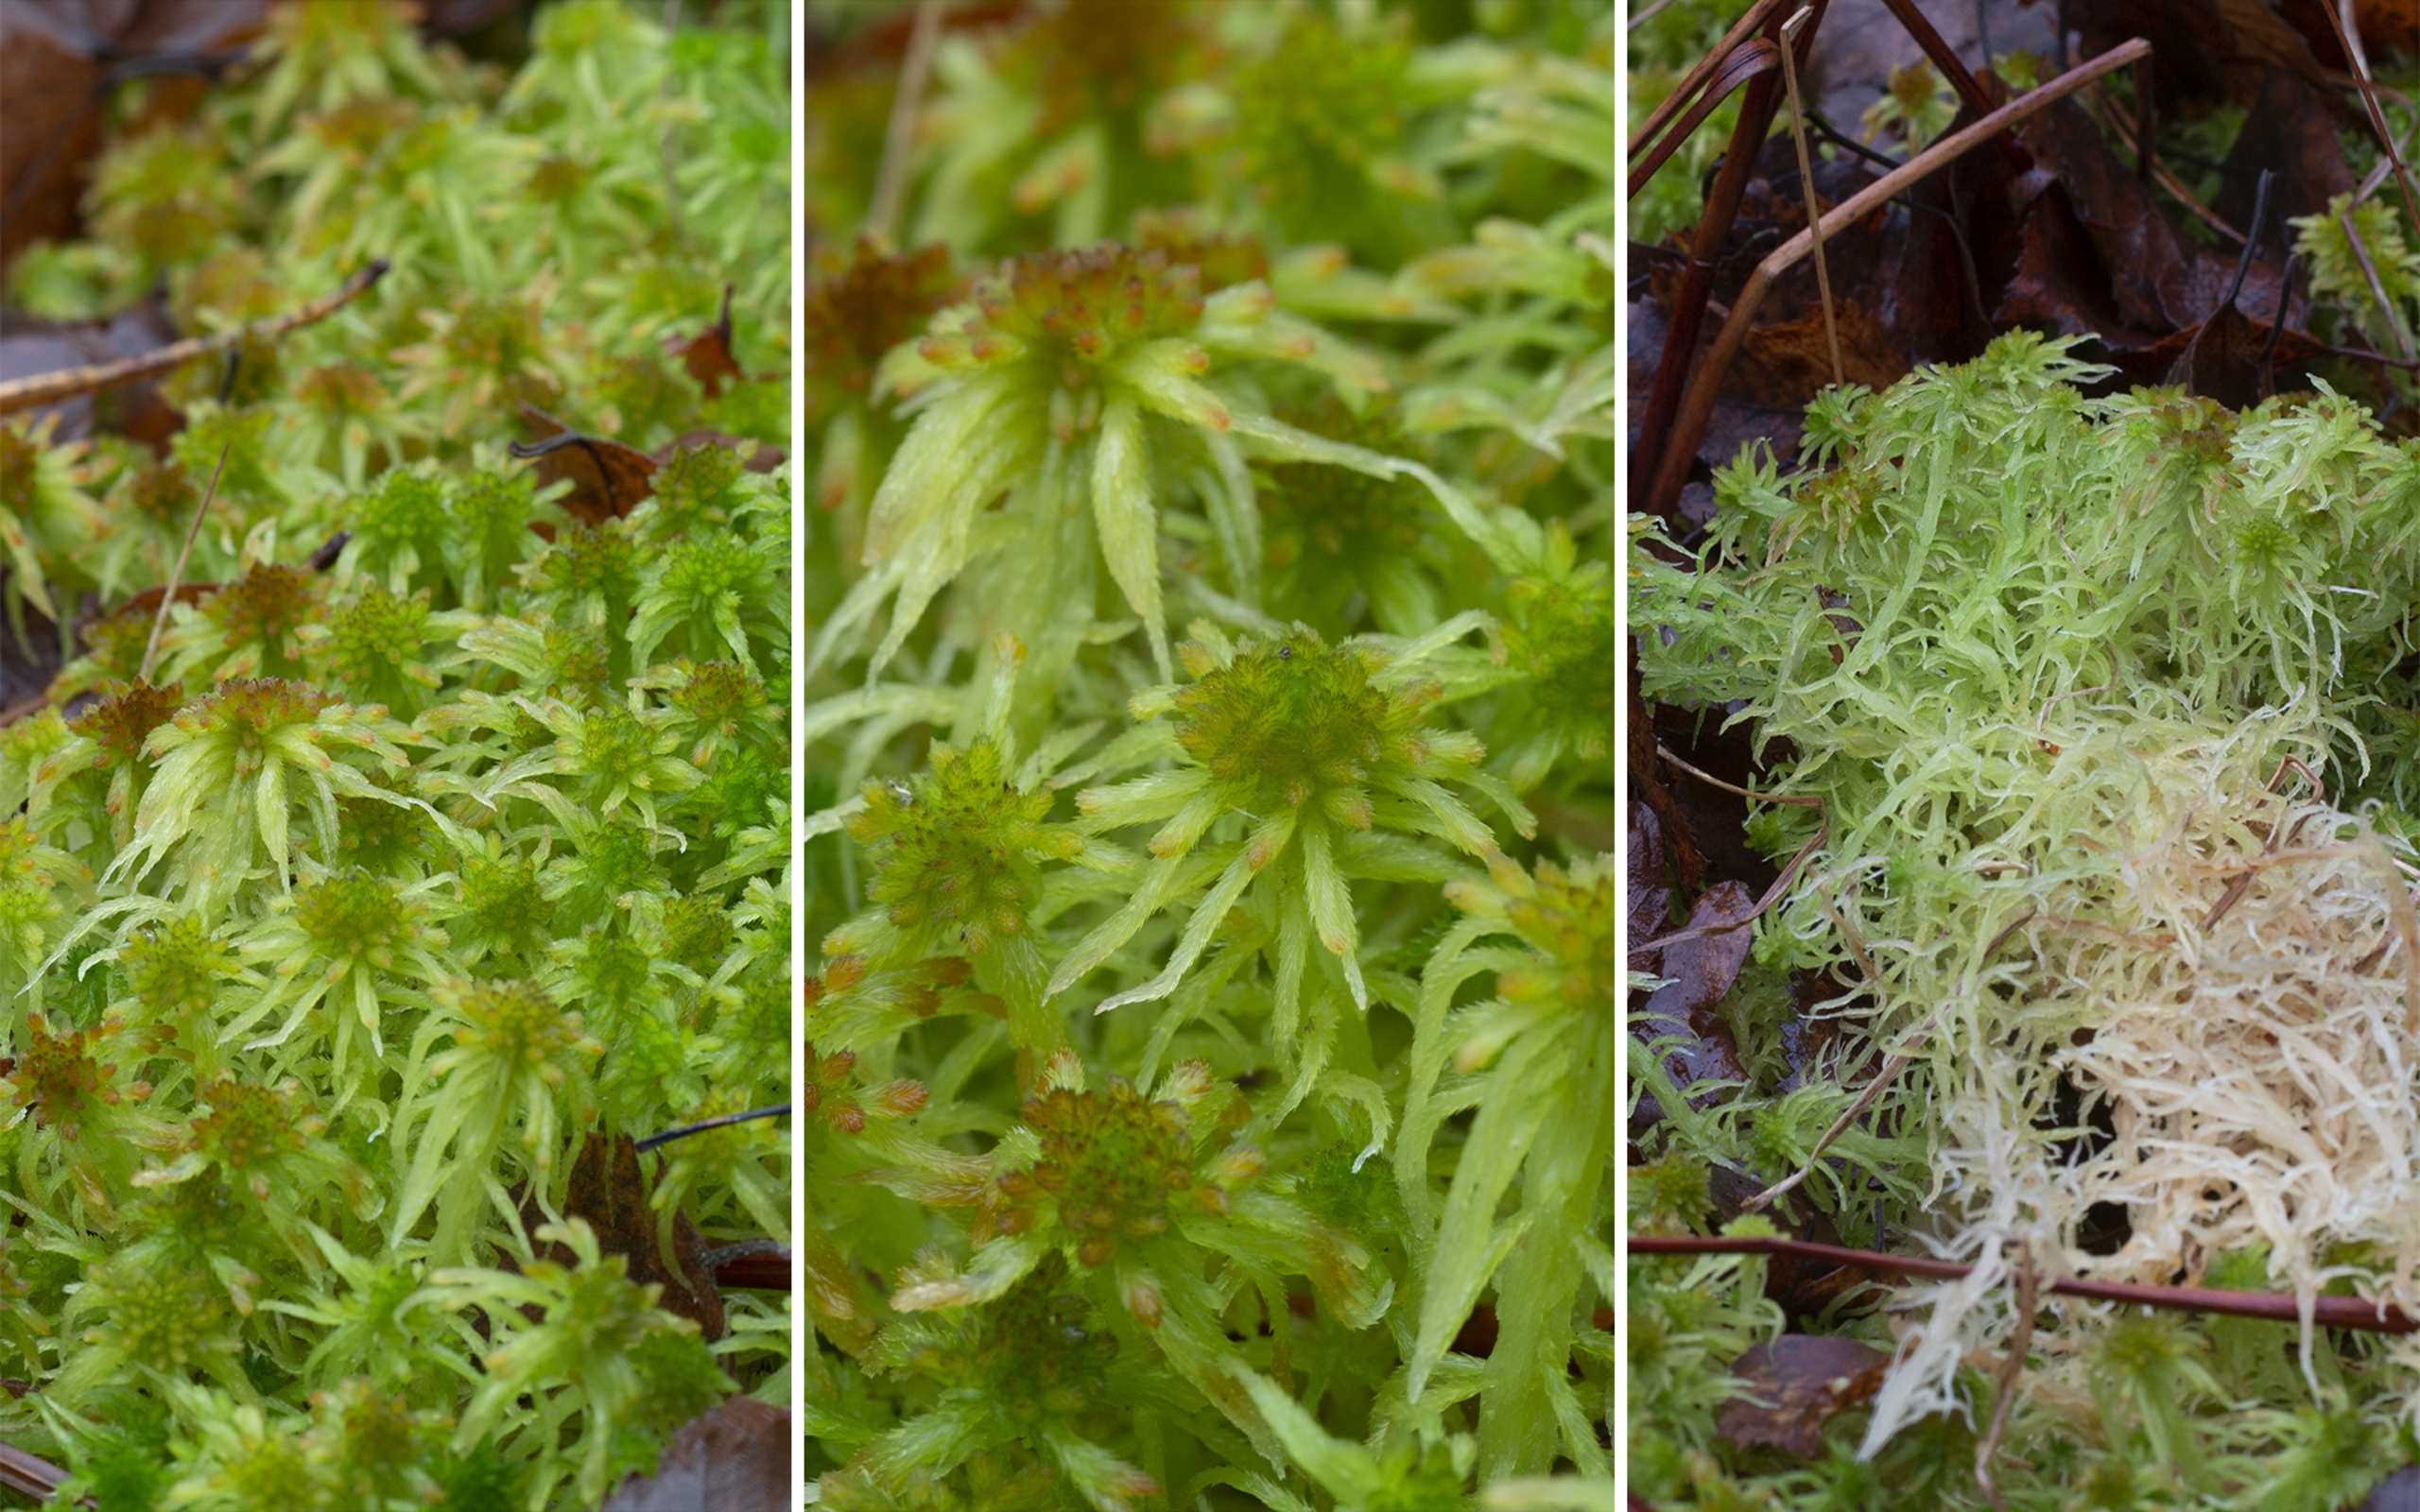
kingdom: Plantae
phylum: Bryophyta
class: Sphagnopsida
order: Sphagnales
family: Sphagnaceae
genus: Sphagnum
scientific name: Sphagnum fallax
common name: Brodspids-tørvemos
